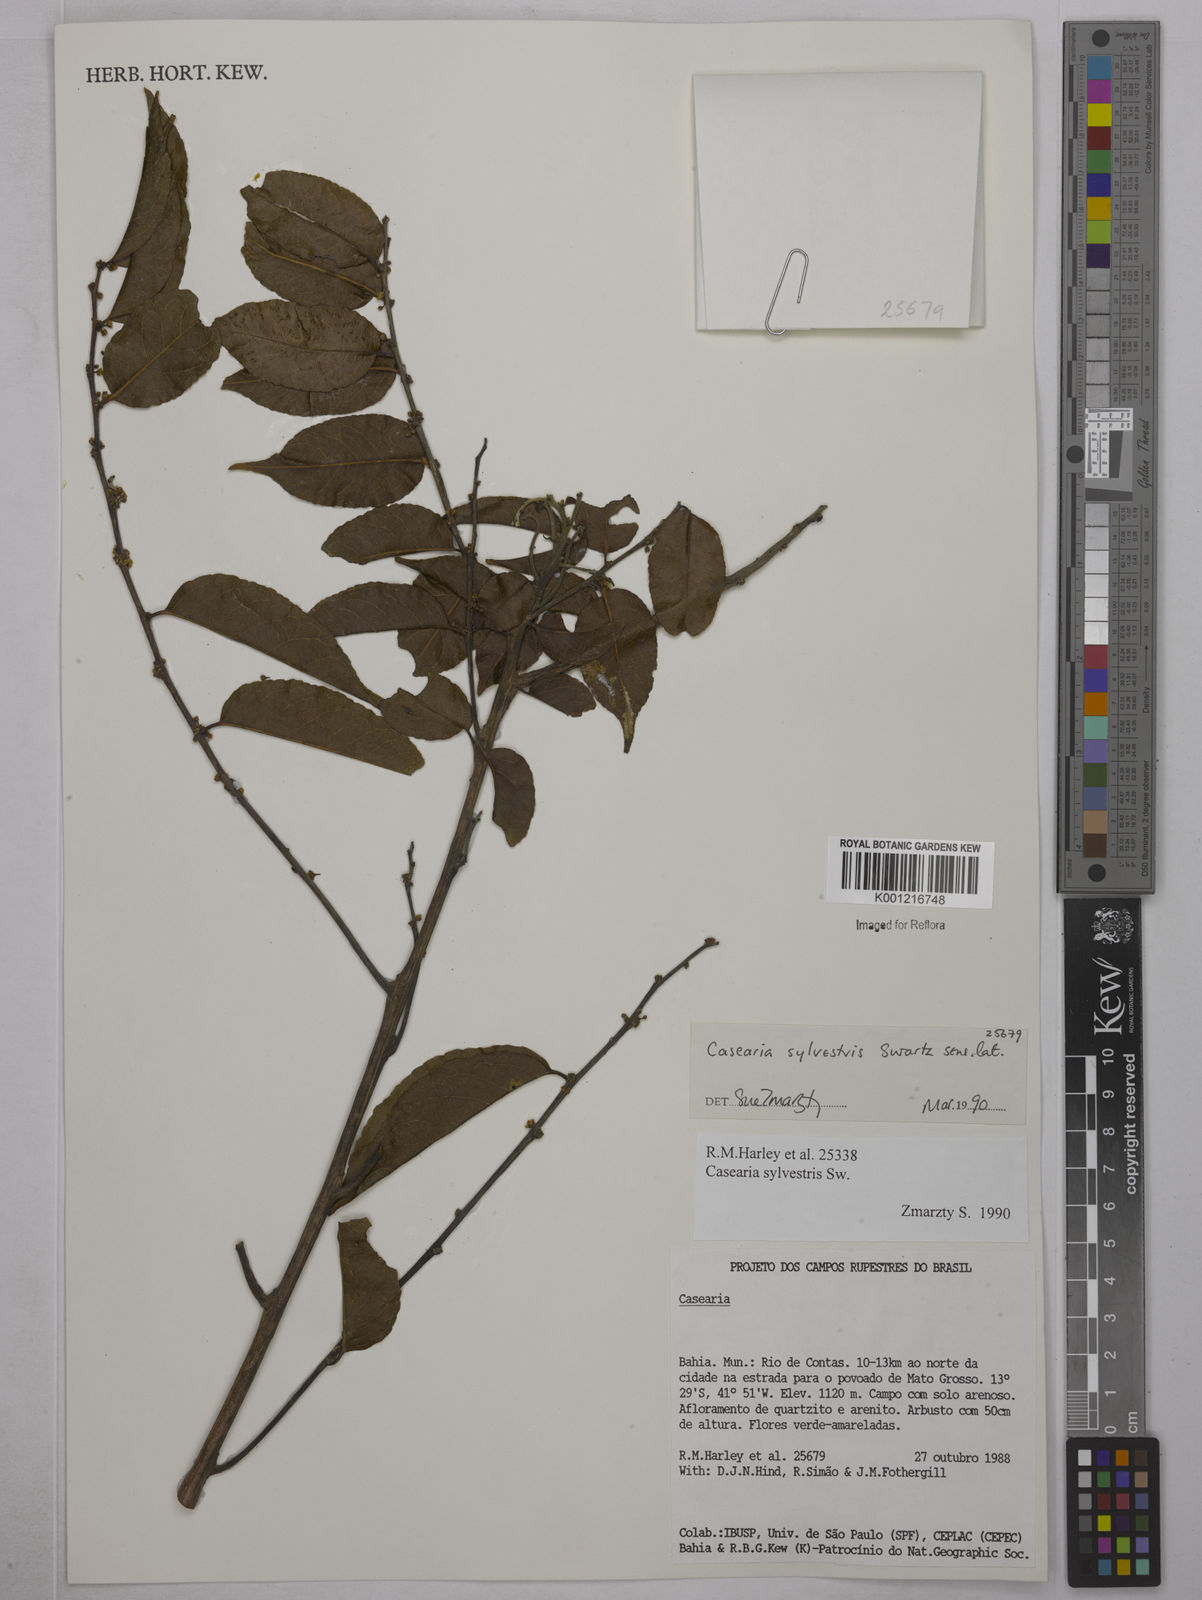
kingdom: Plantae
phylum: Tracheophyta
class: Magnoliopsida
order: Malpighiales
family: Salicaceae
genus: Casearia
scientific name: Casearia sylvestris
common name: Wild sage
